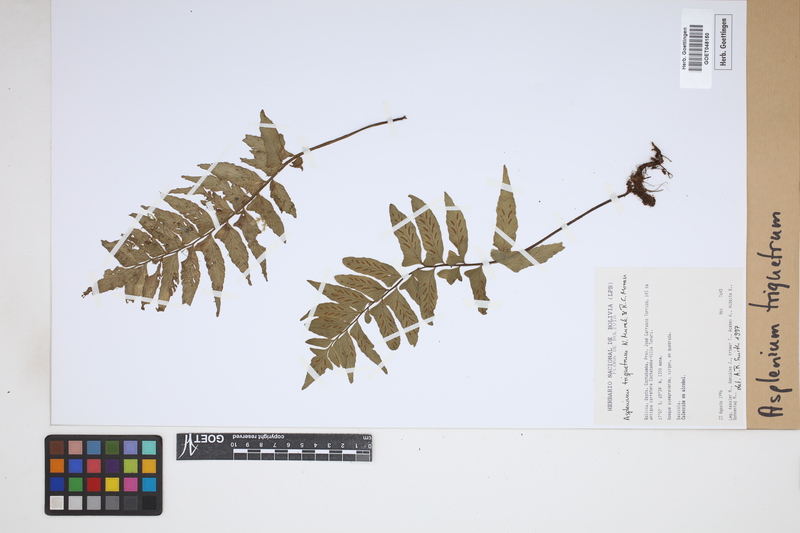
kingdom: Plantae
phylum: Tracheophyta
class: Polypodiopsida
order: Polypodiales
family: Aspleniaceae
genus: Hymenasplenium
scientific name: Hymenasplenium triquetrum
